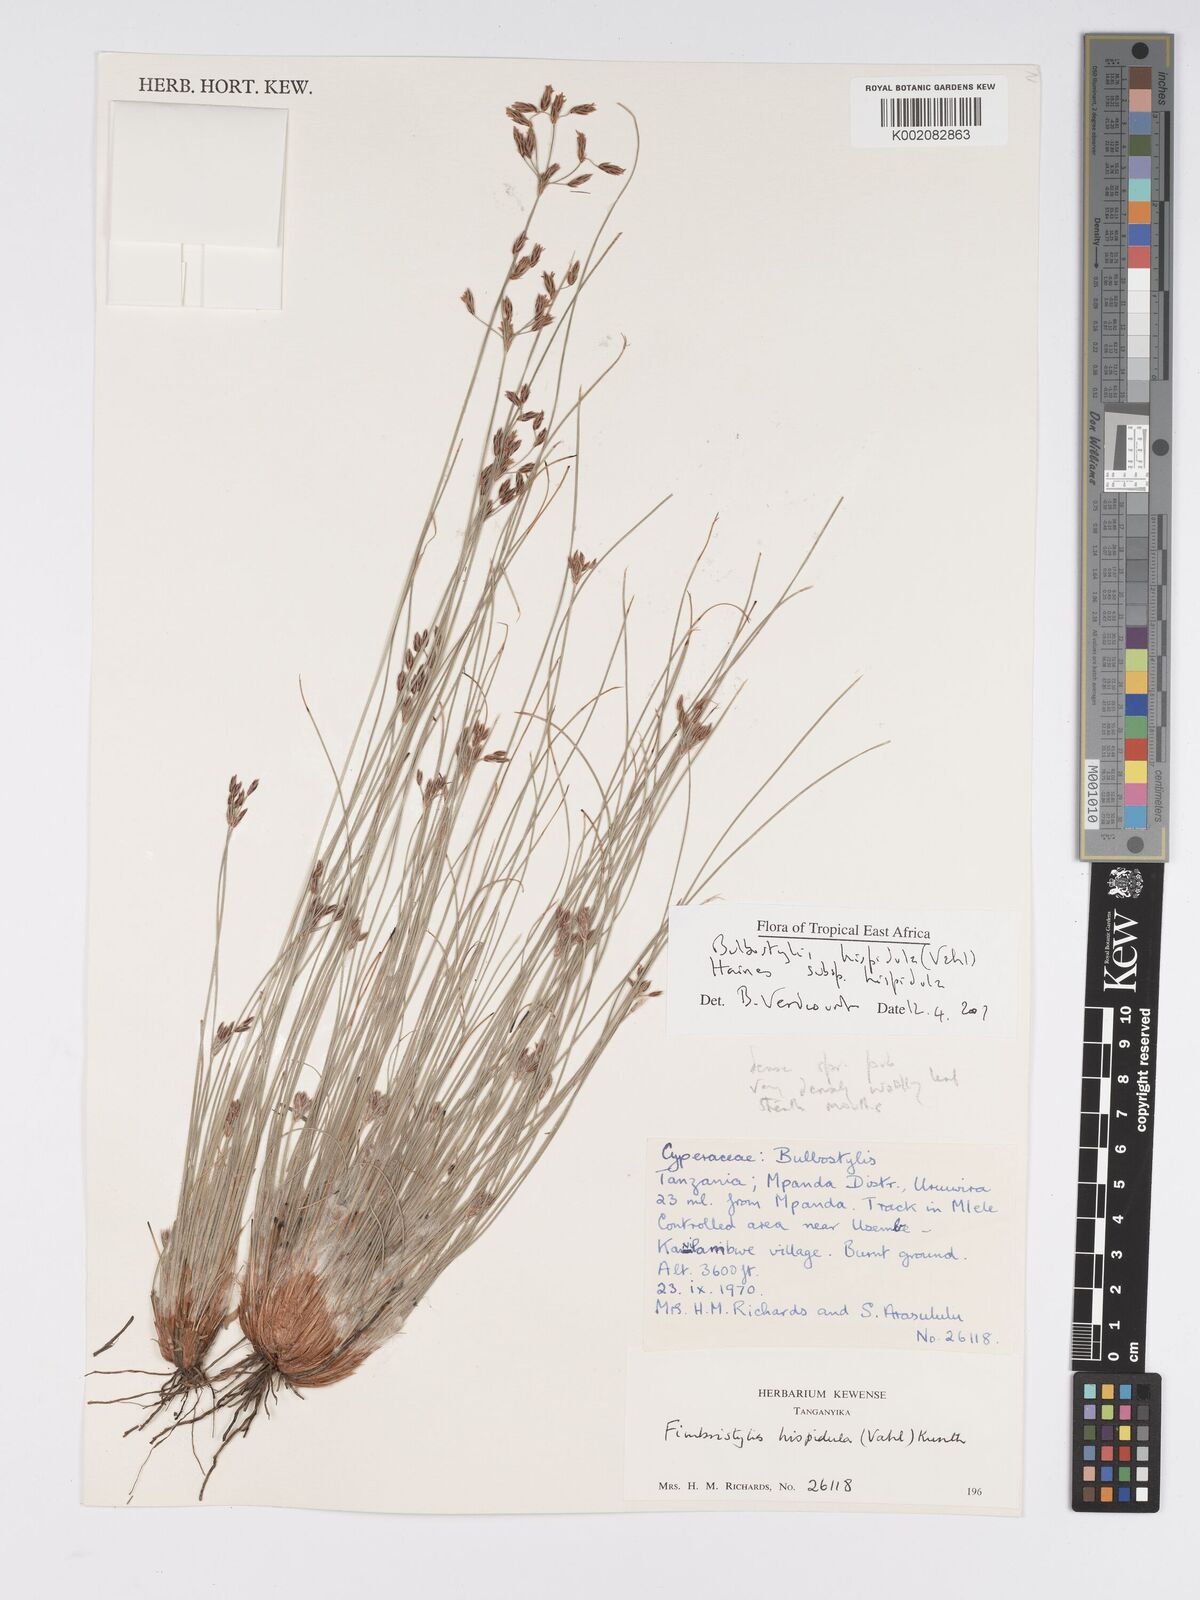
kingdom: Plantae
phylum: Tracheophyta
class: Liliopsida
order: Poales
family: Cyperaceae
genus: Bulbostylis
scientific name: Bulbostylis hispidula
